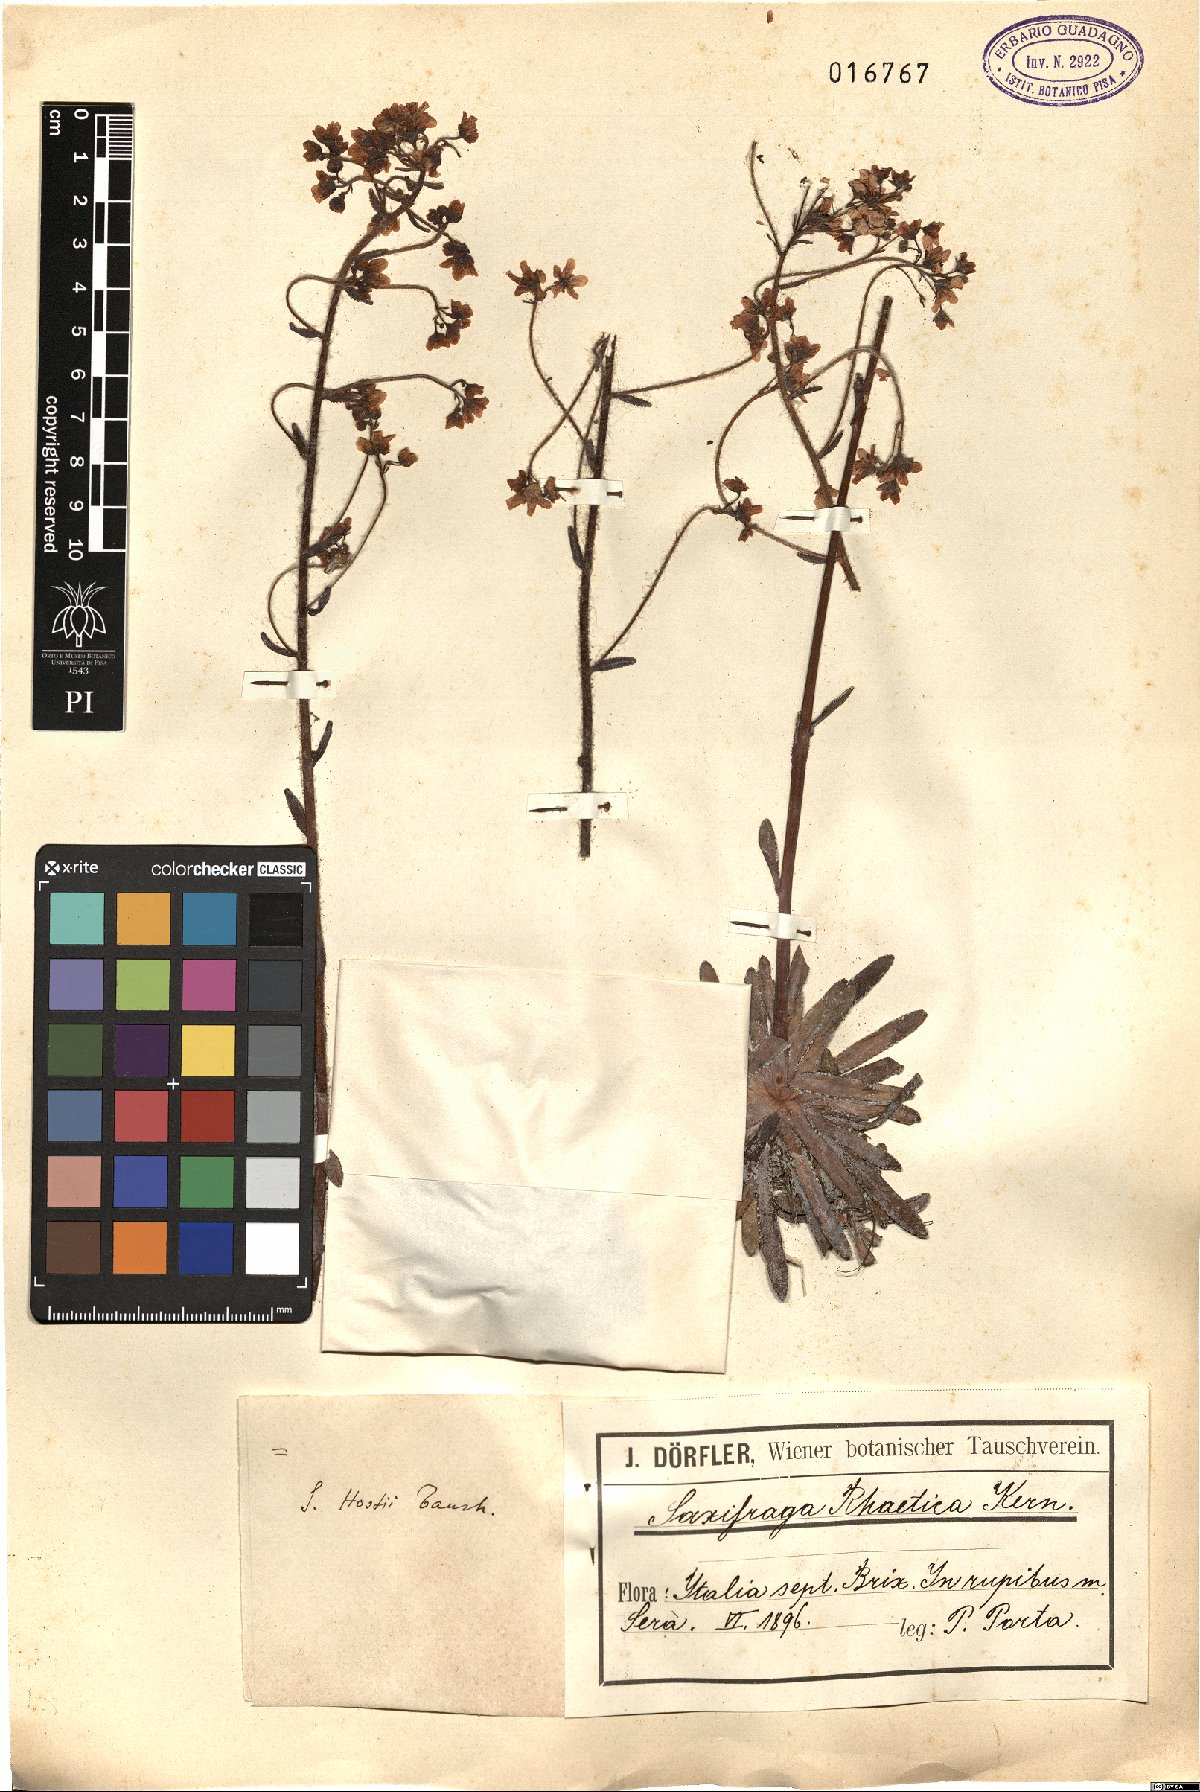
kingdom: Plantae
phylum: Tracheophyta
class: Magnoliopsida
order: Saxifragales
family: Saxifragaceae
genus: Saxifraga
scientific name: Saxifraga hostii
